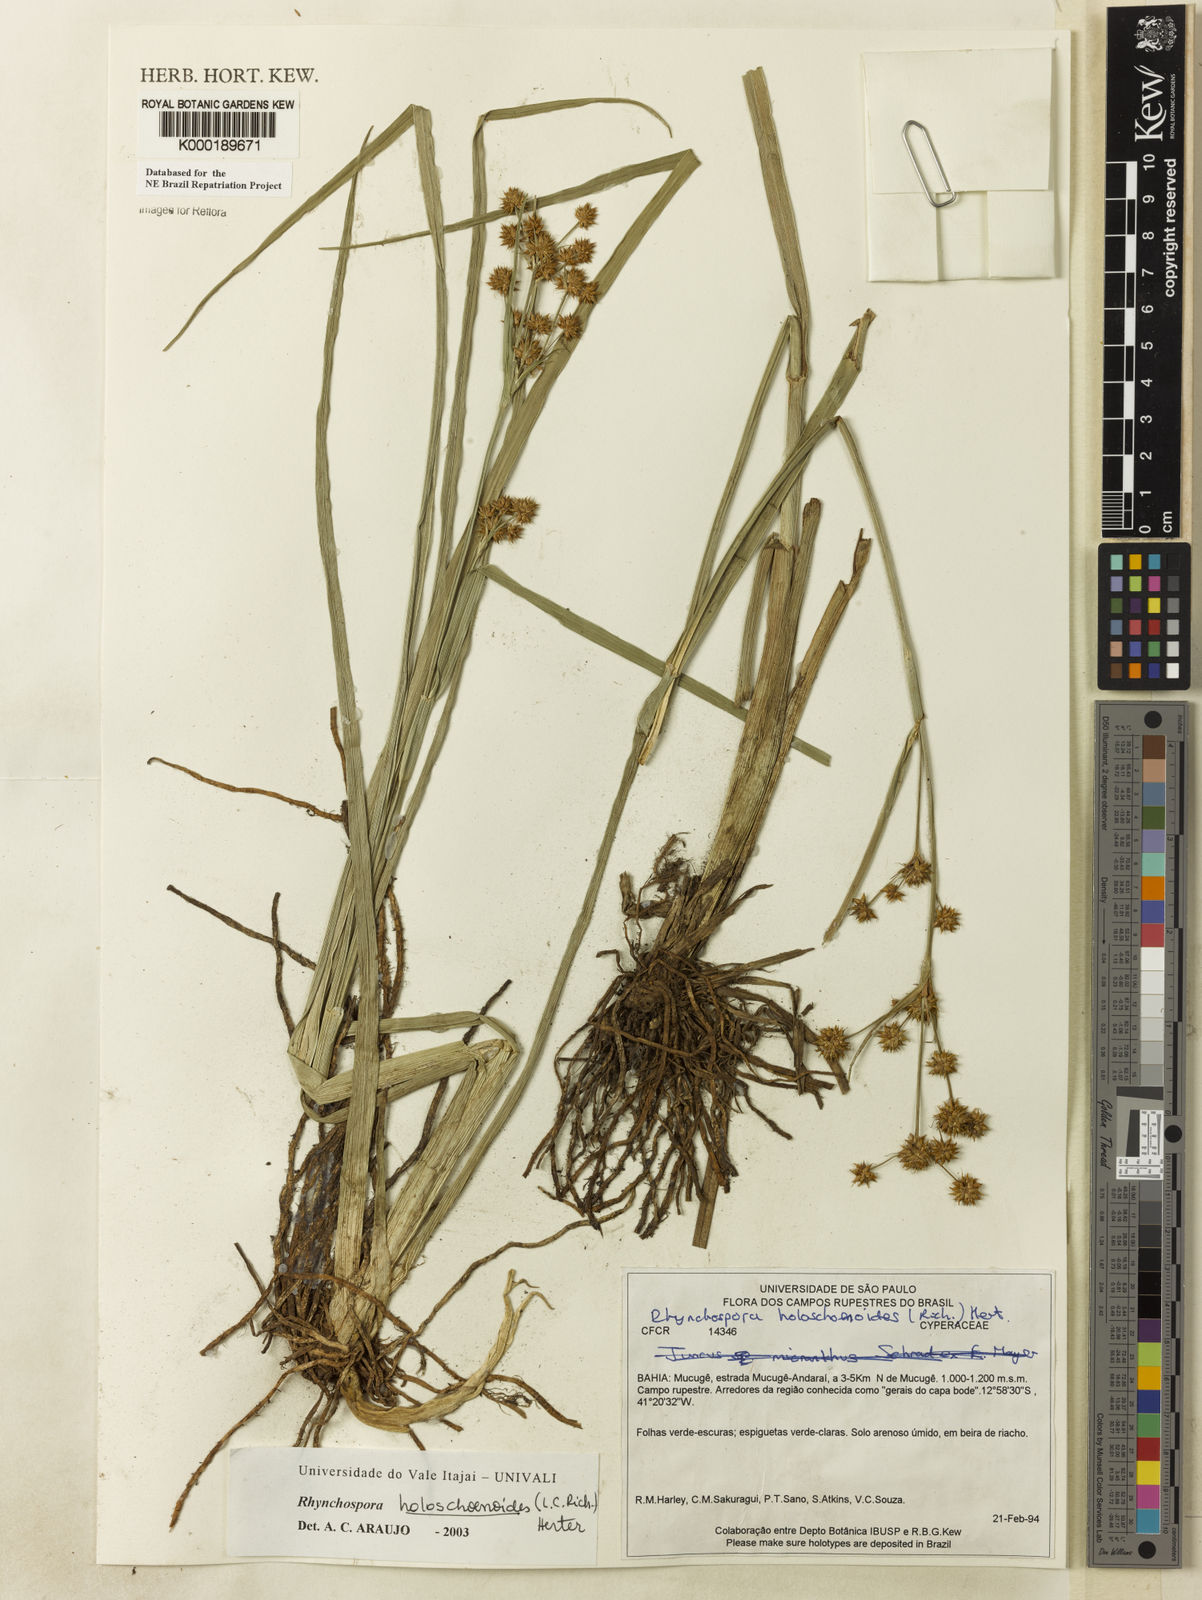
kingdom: Plantae
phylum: Tracheophyta
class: Liliopsida
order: Poales
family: Cyperaceae
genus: Rhynchospora
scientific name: Rhynchospora holoschoenoides
